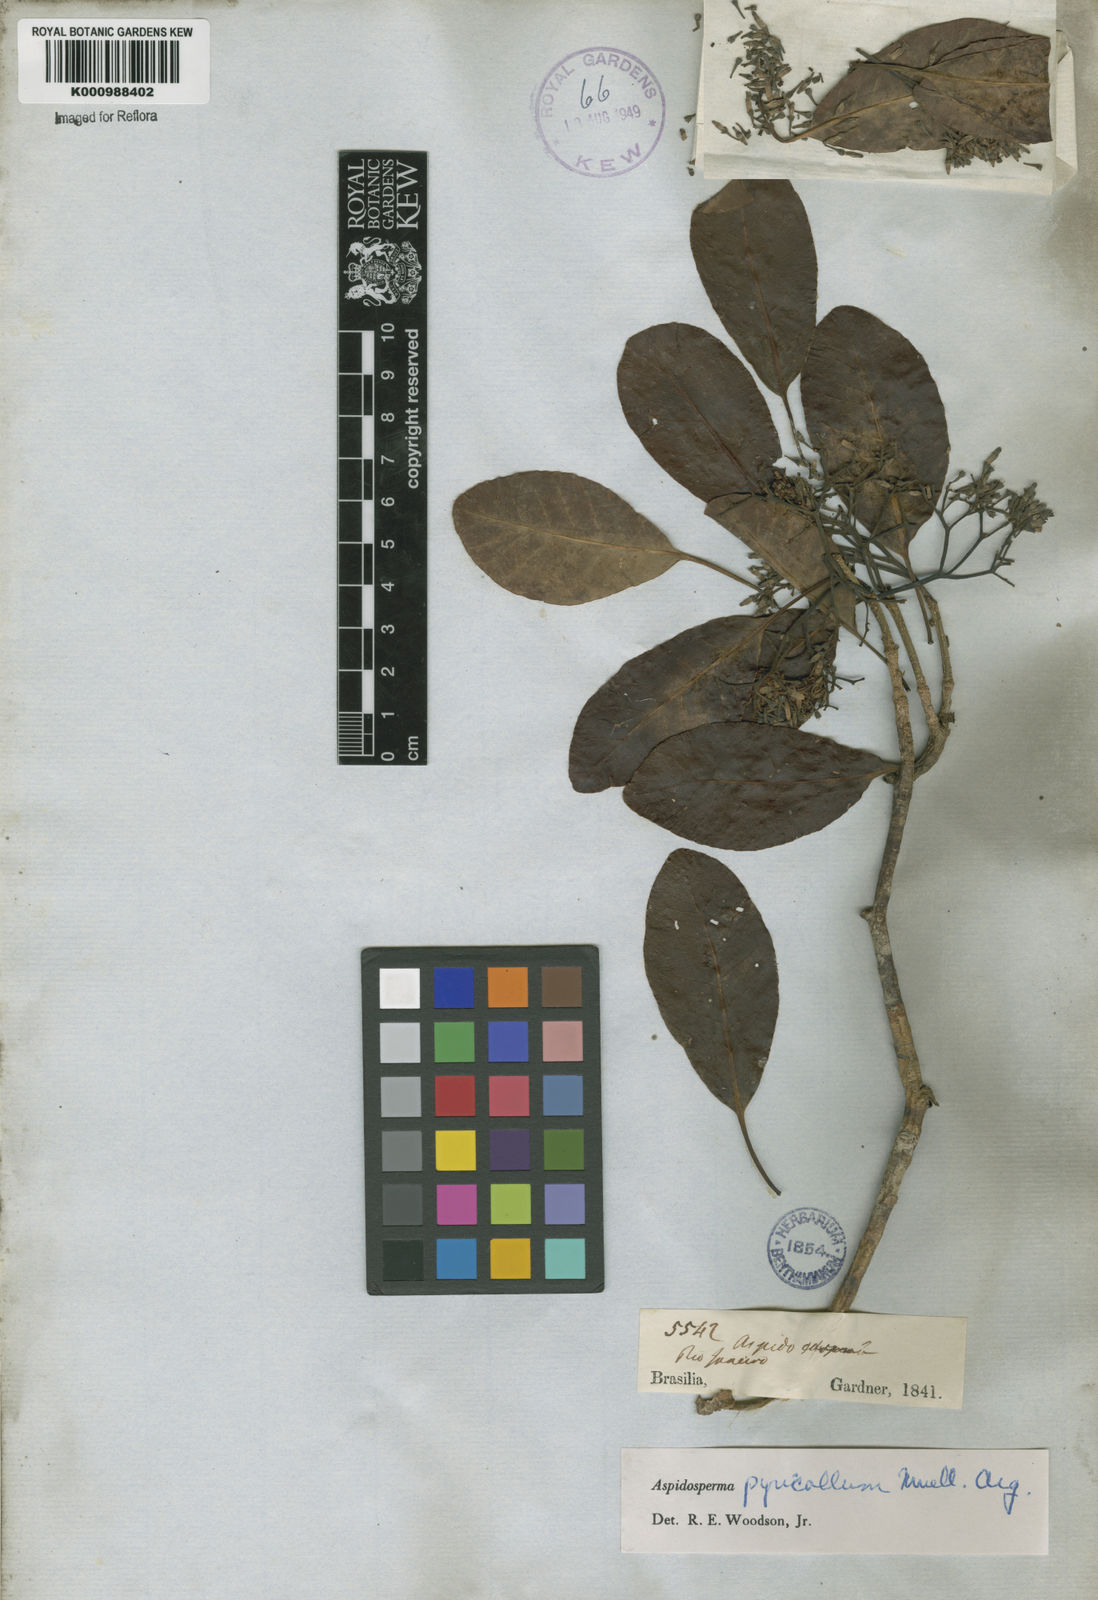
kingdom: Plantae
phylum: Tracheophyta
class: Magnoliopsida
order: Gentianales
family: Apocynaceae
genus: Aspidosperma
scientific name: Aspidosperma
